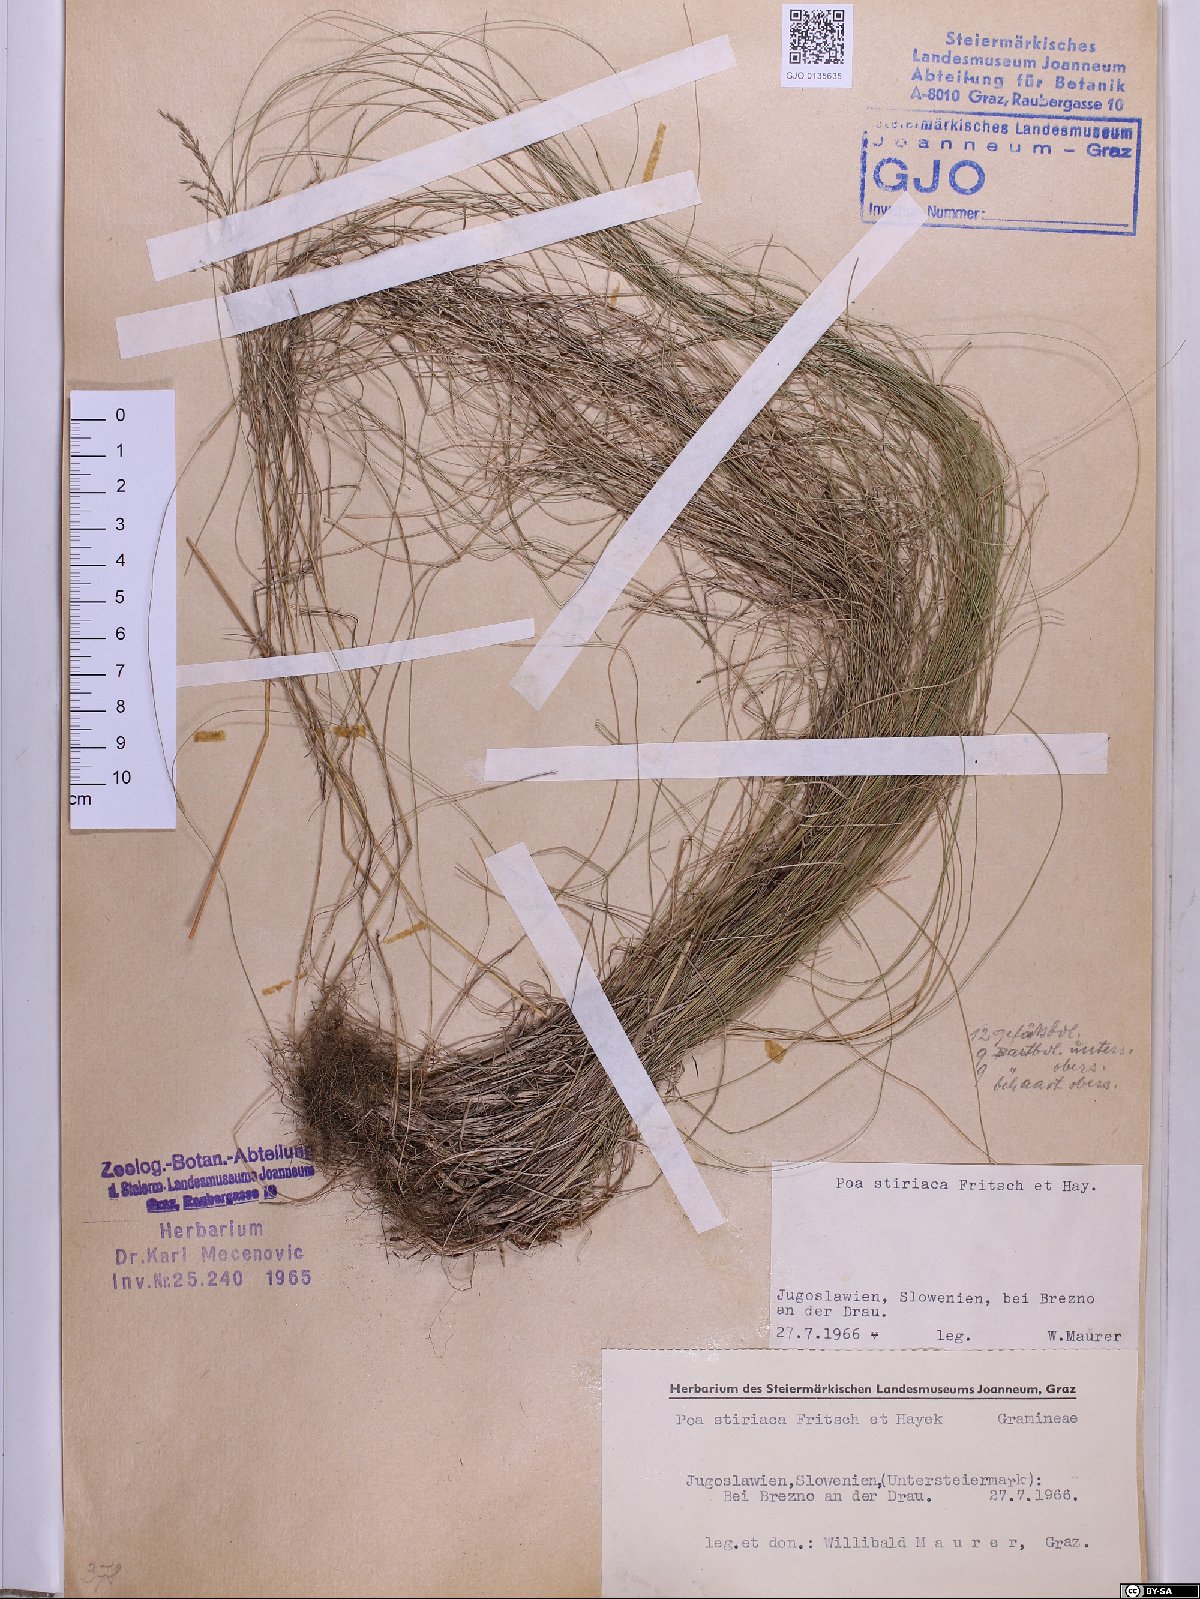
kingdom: Plantae
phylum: Tracheophyta
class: Liliopsida
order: Poales
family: Poaceae
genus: Poa
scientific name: Poa stiriaca
